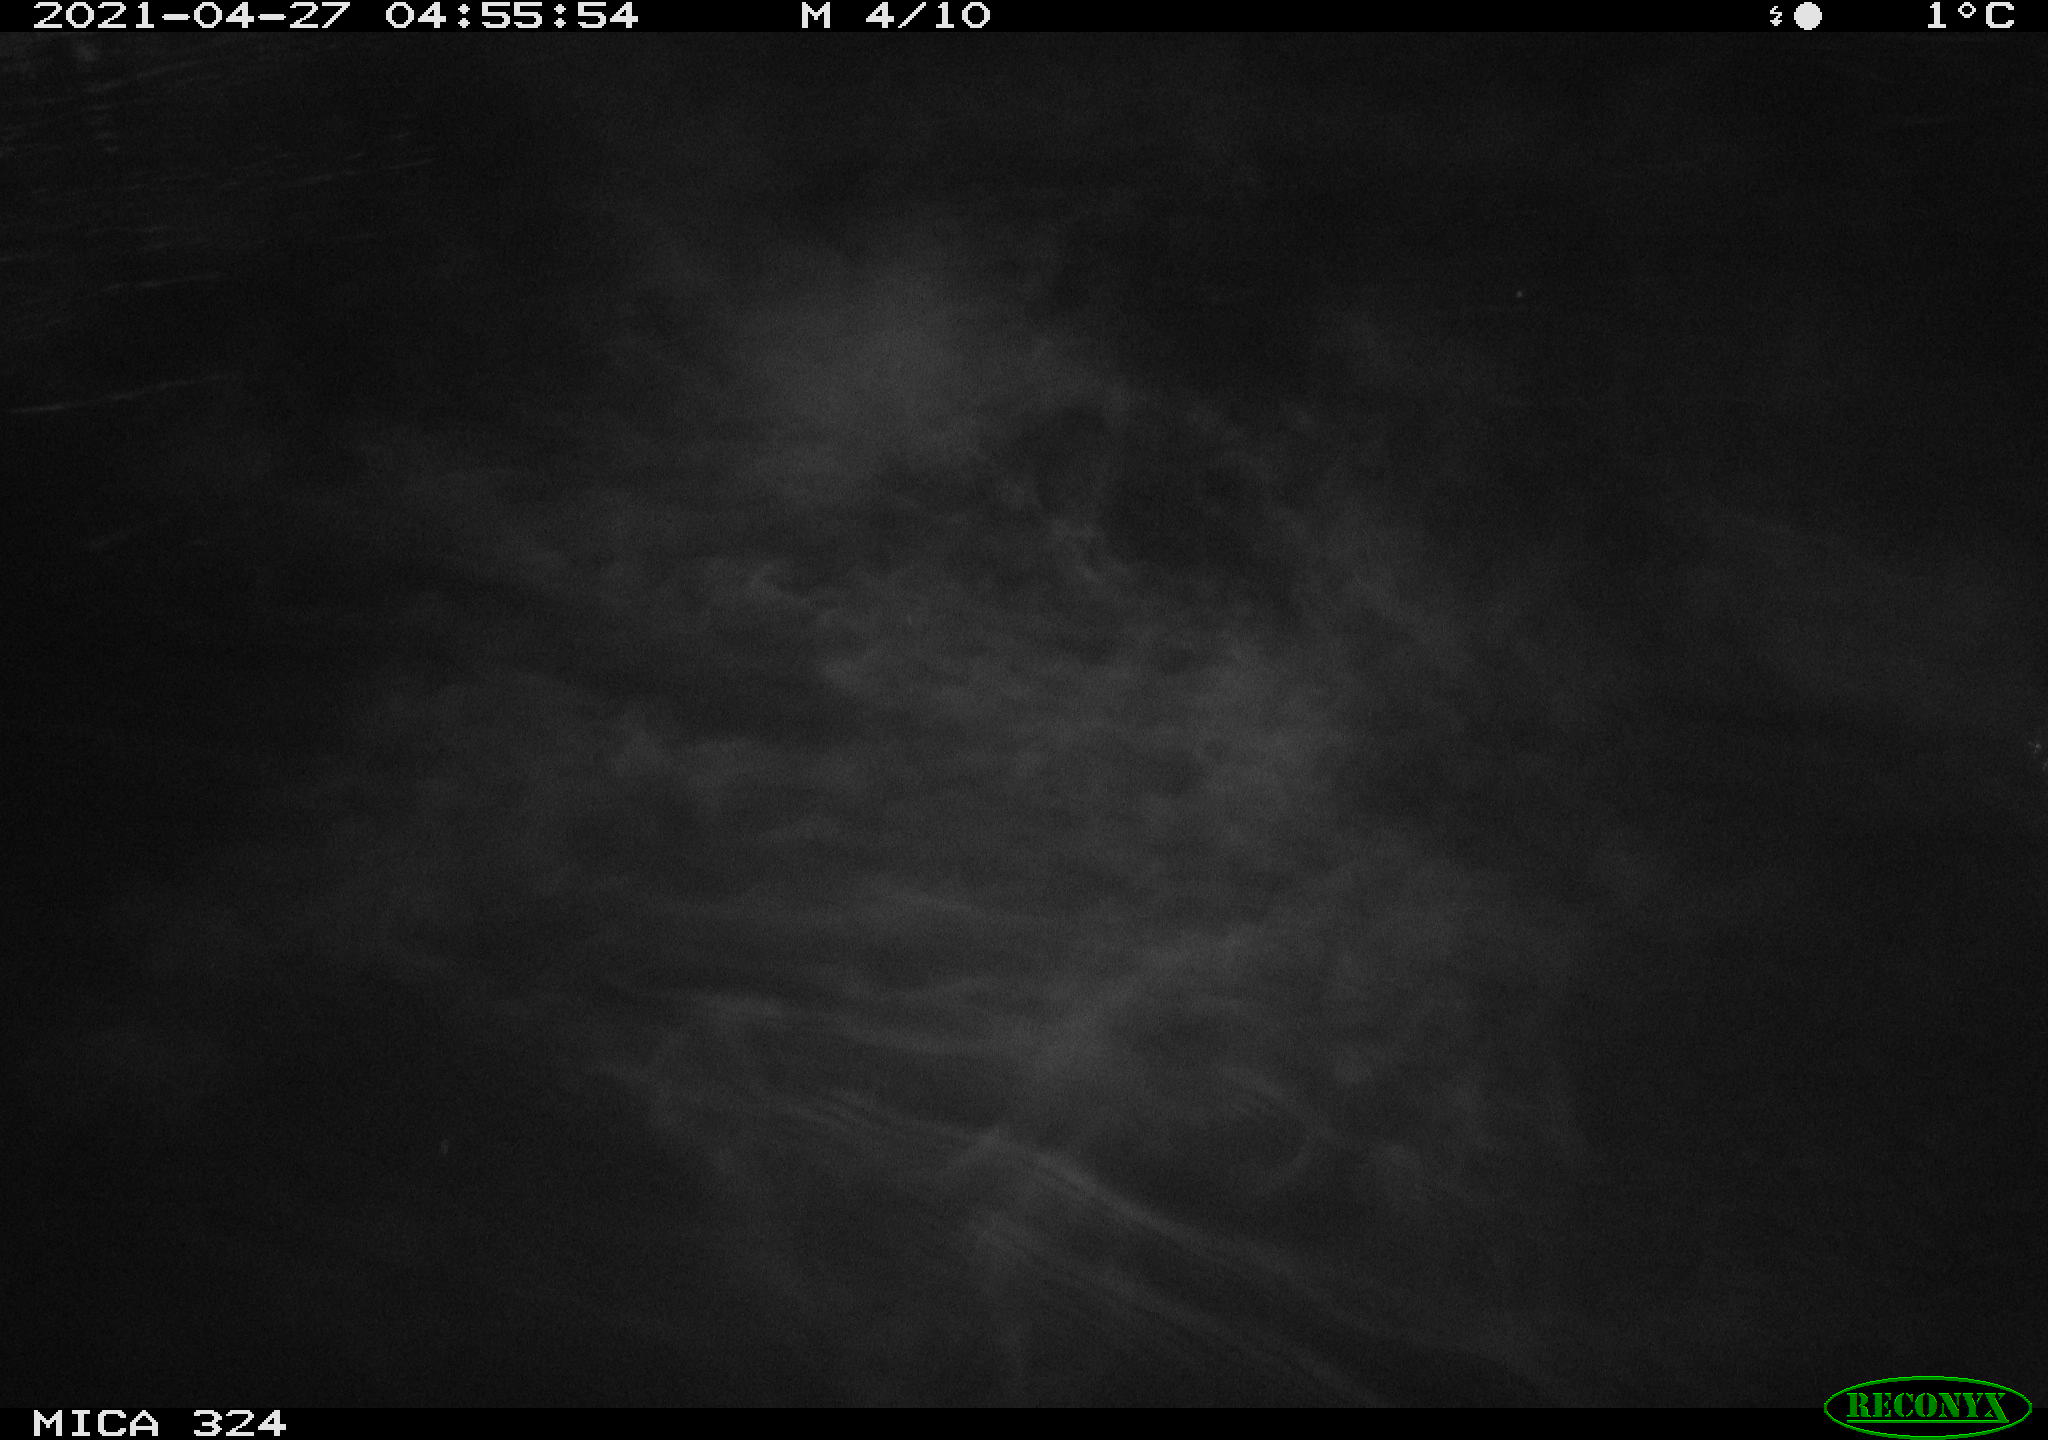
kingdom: Animalia
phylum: Chordata
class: Aves
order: Anseriformes
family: Anatidae
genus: Anas
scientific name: Anas platyrhynchos
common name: Mallard
